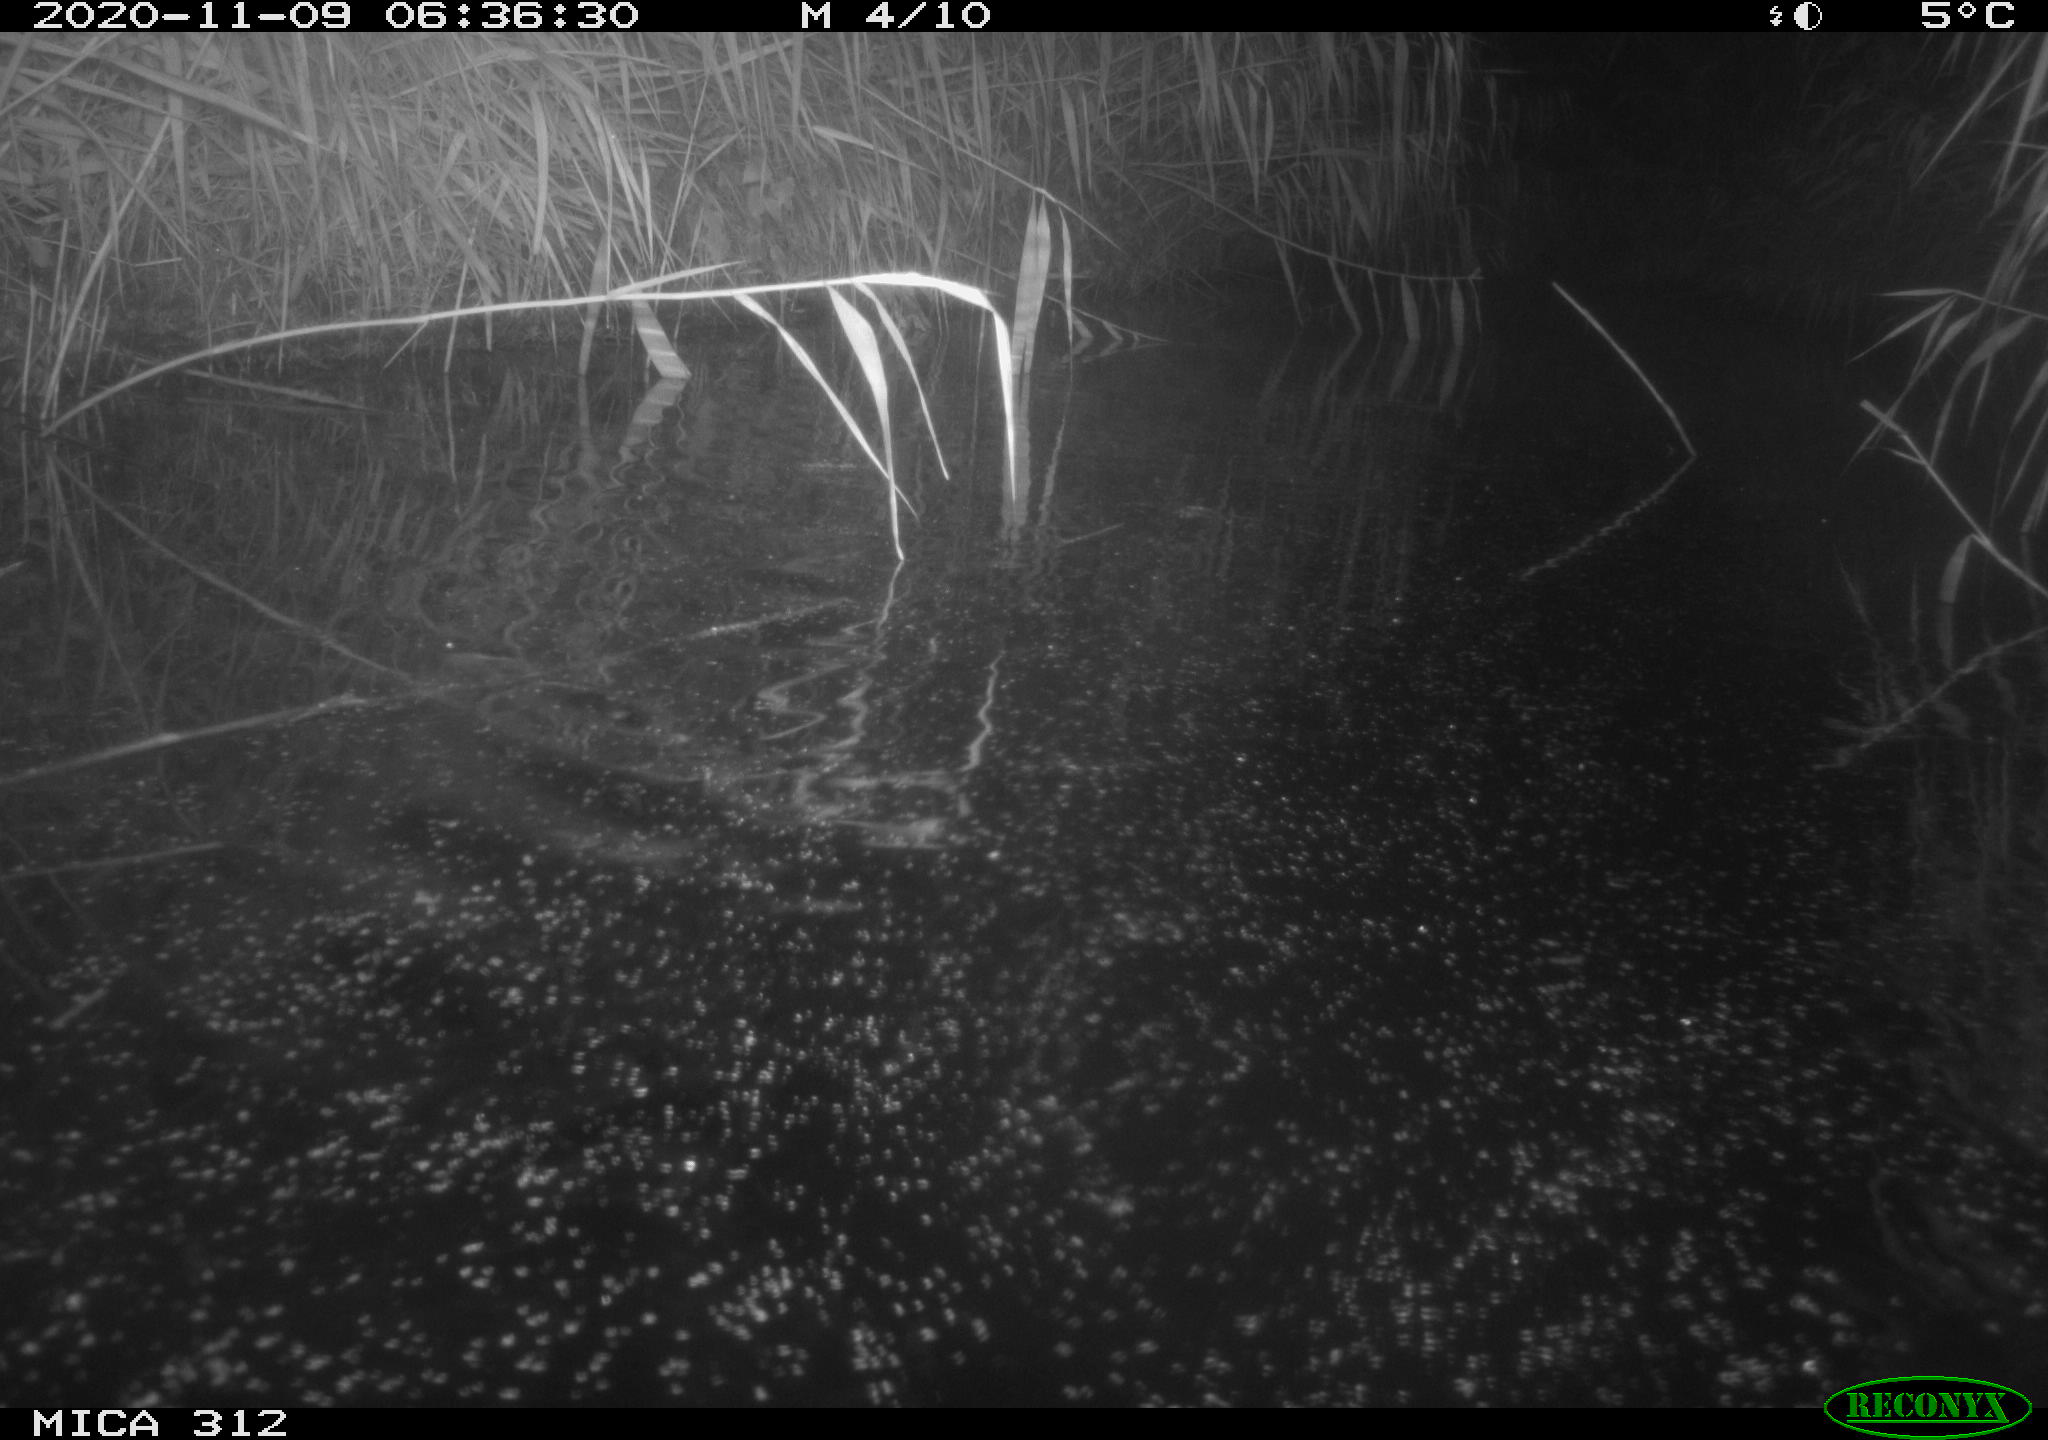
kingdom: Animalia
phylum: Chordata
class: Mammalia
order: Rodentia
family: Muridae
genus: Rattus
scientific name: Rattus norvegicus
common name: Brown rat
